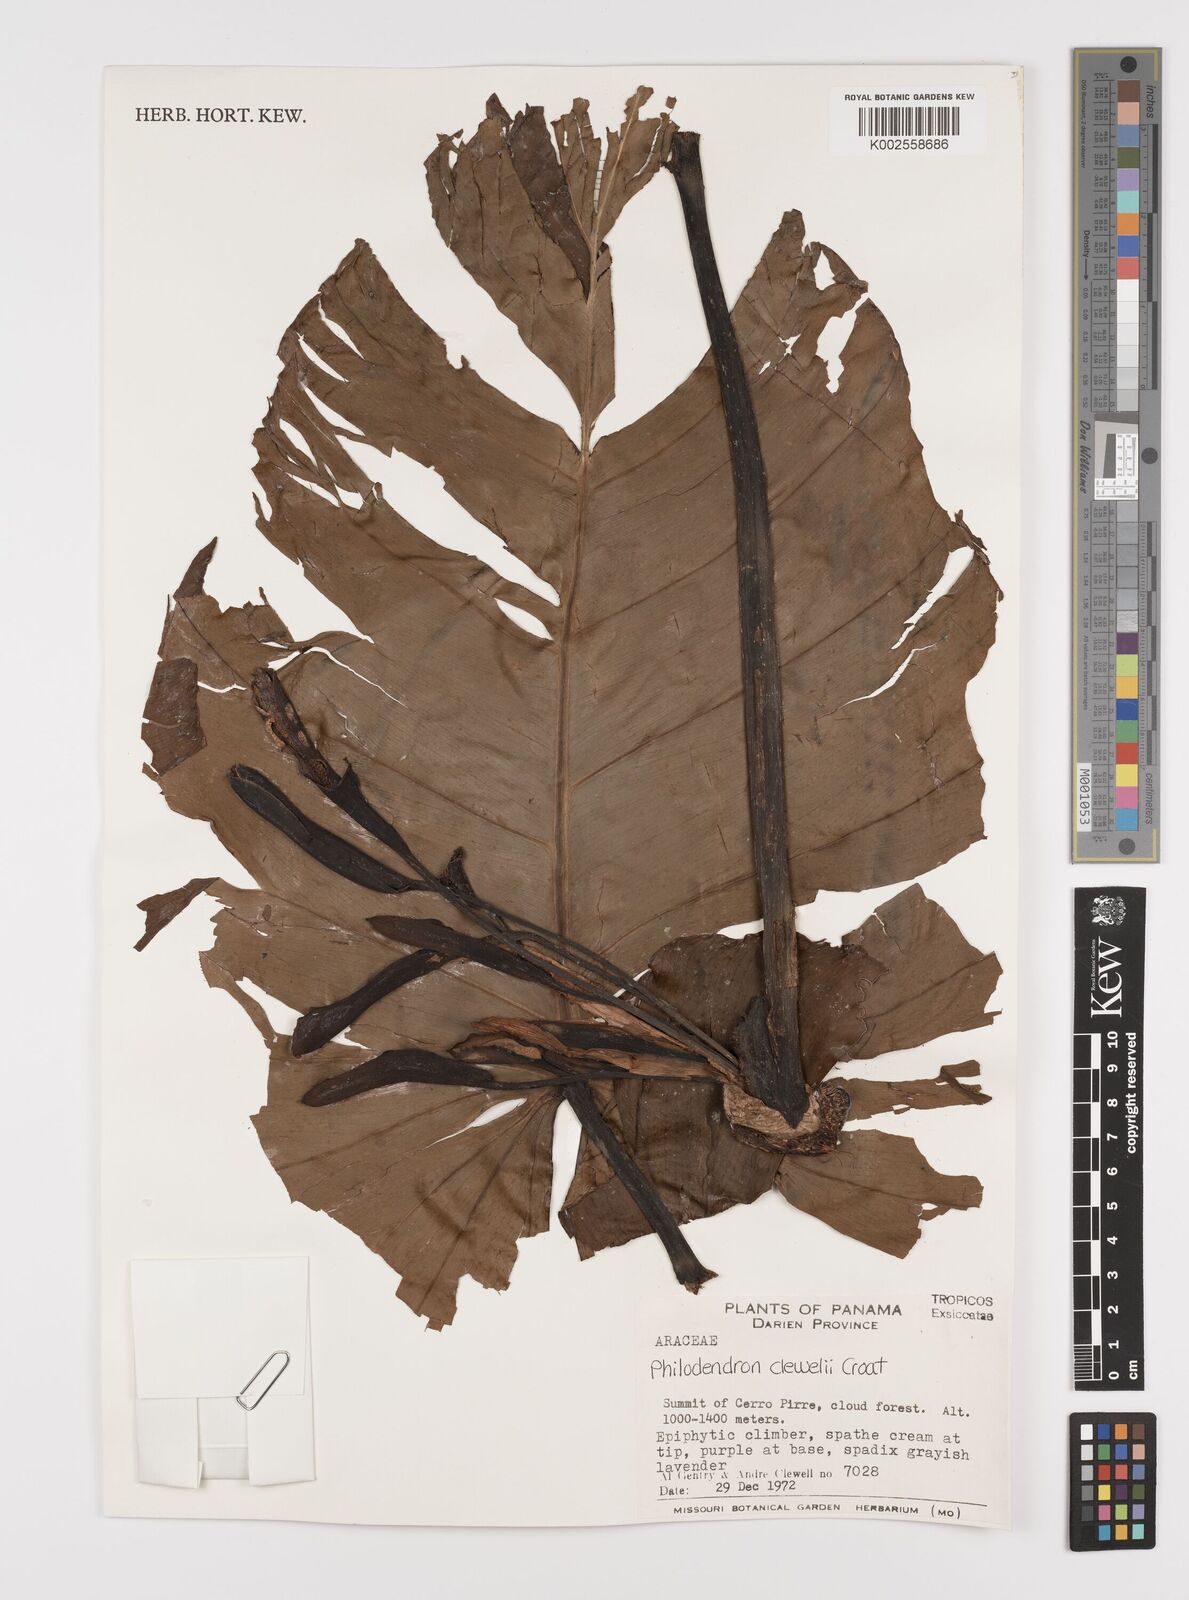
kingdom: Plantae
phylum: Tracheophyta
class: Liliopsida
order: Alismatales
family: Araceae
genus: Philodendron
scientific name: Philodendron clewellii
